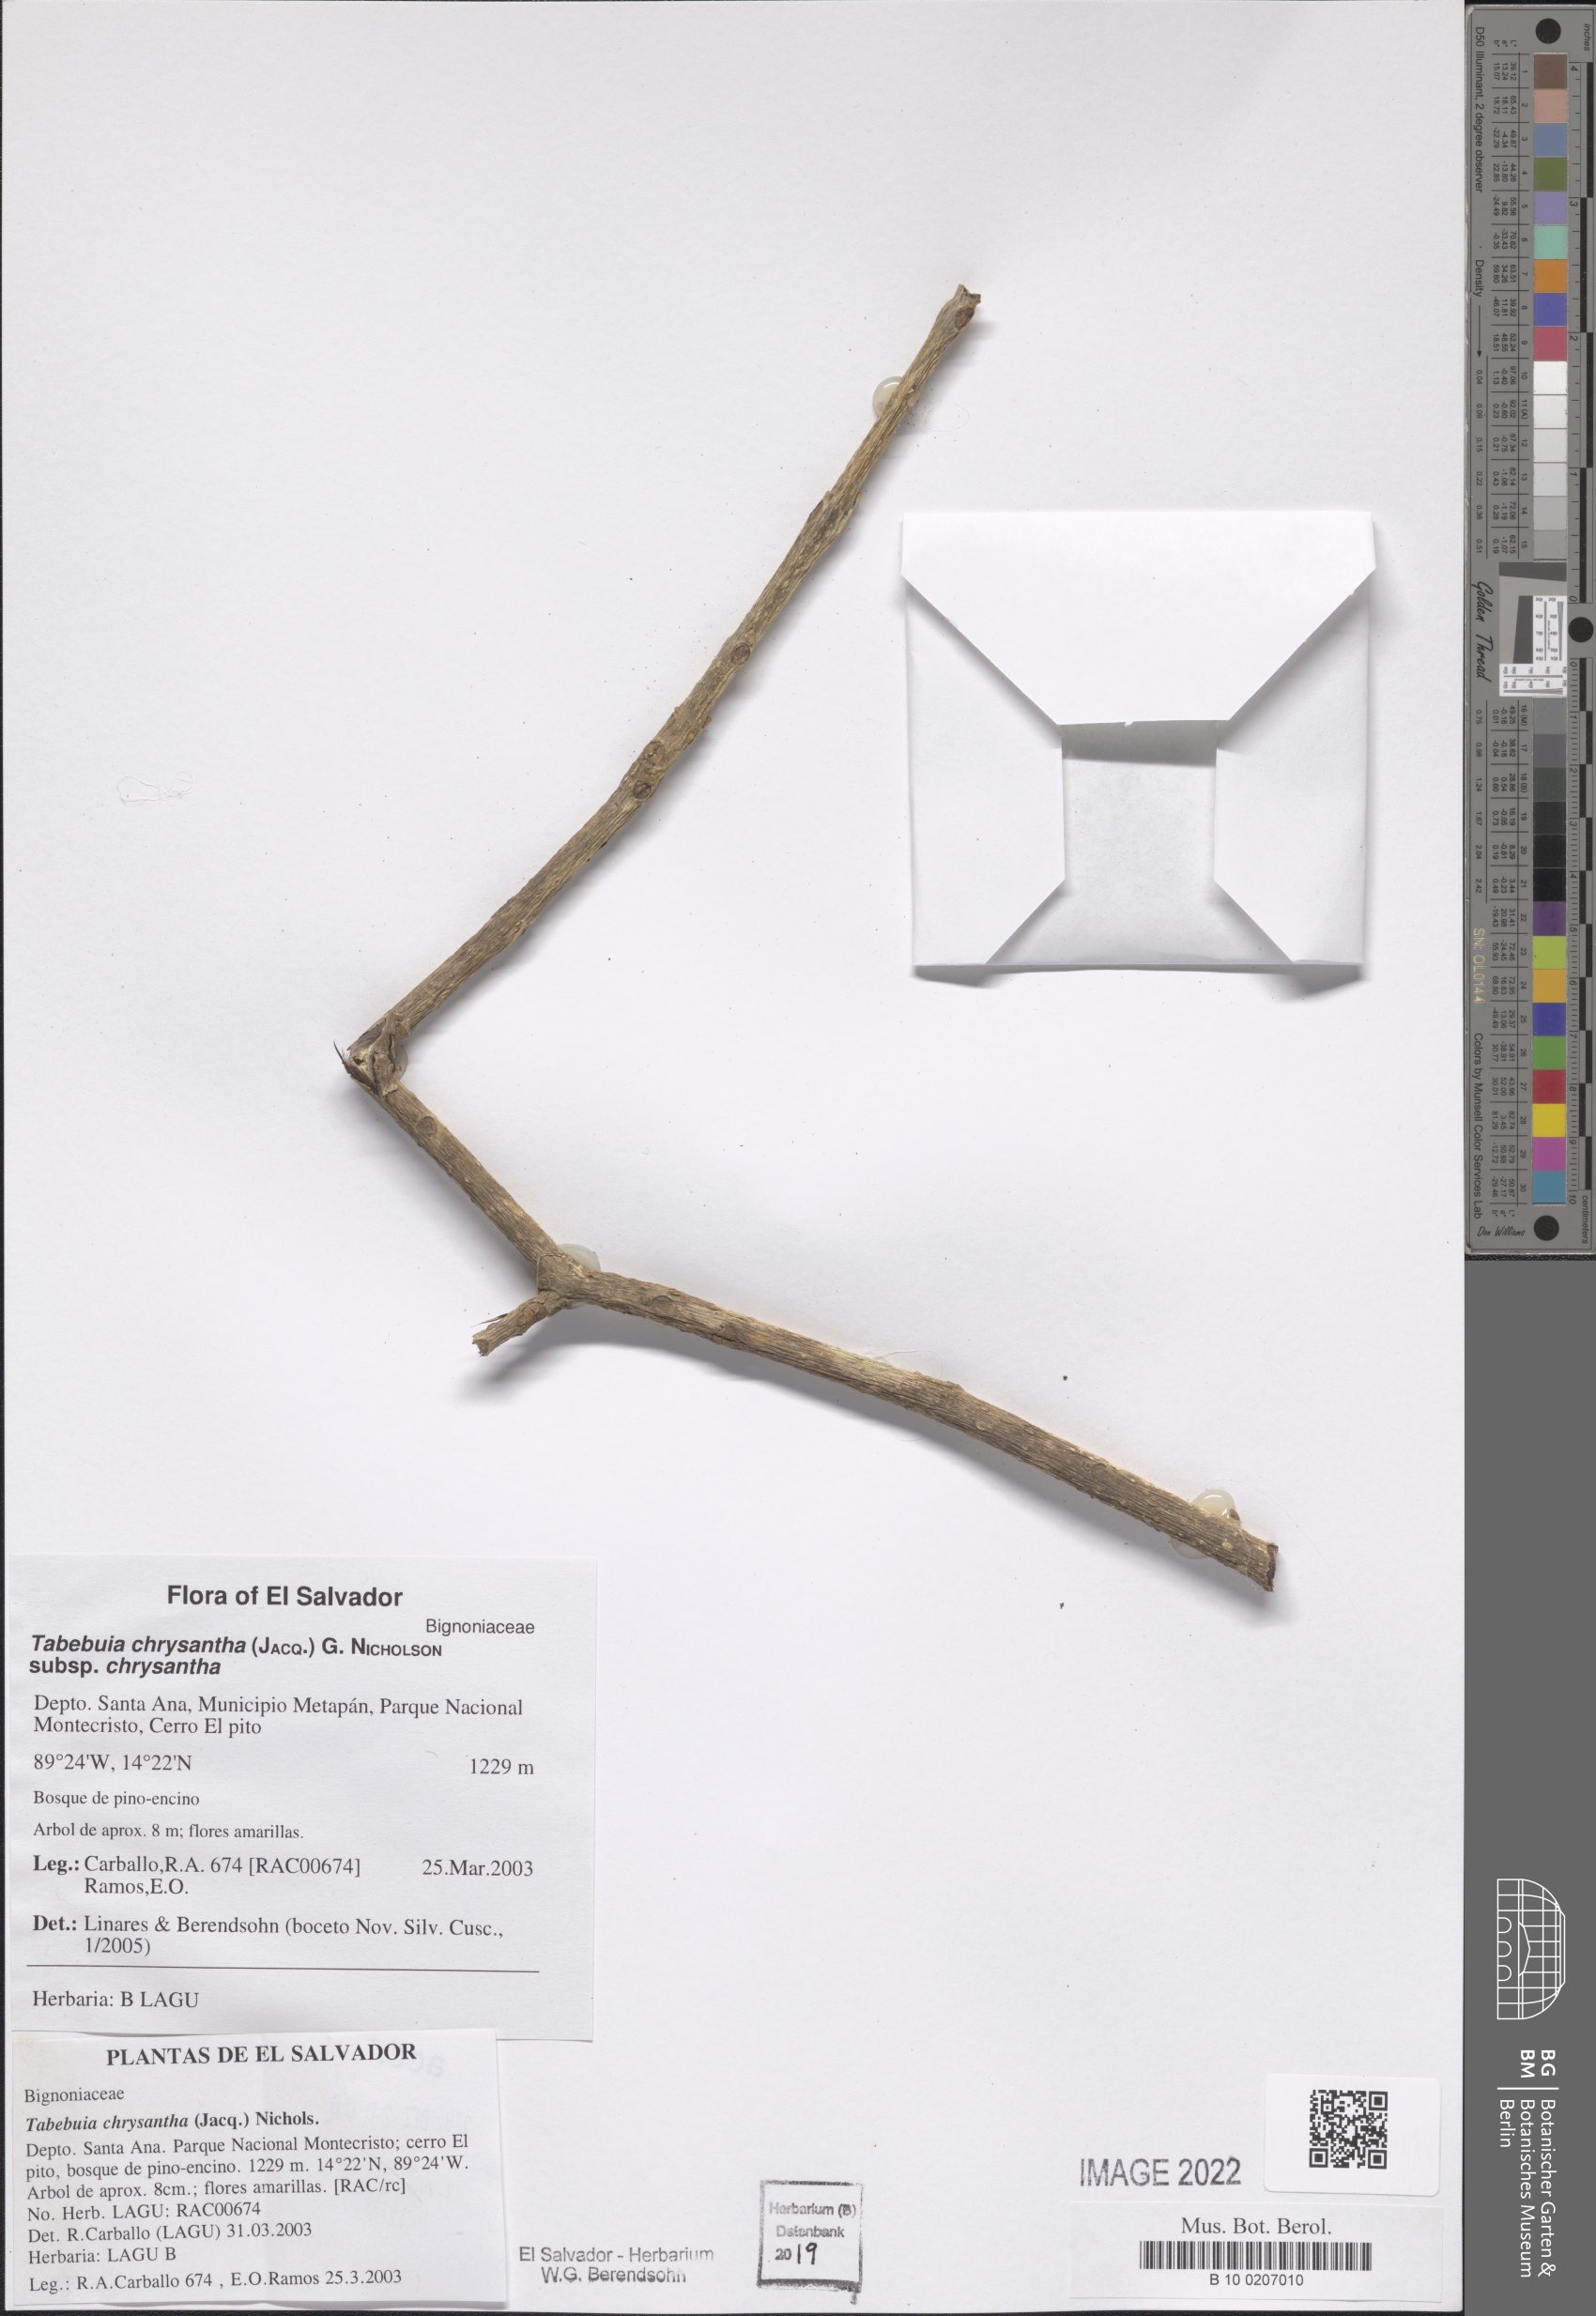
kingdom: Plantae
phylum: Tracheophyta
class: Magnoliopsida
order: Lamiales
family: Bignoniaceae
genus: Handroanthus
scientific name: Handroanthus chrysanthus
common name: Trumpet trees
